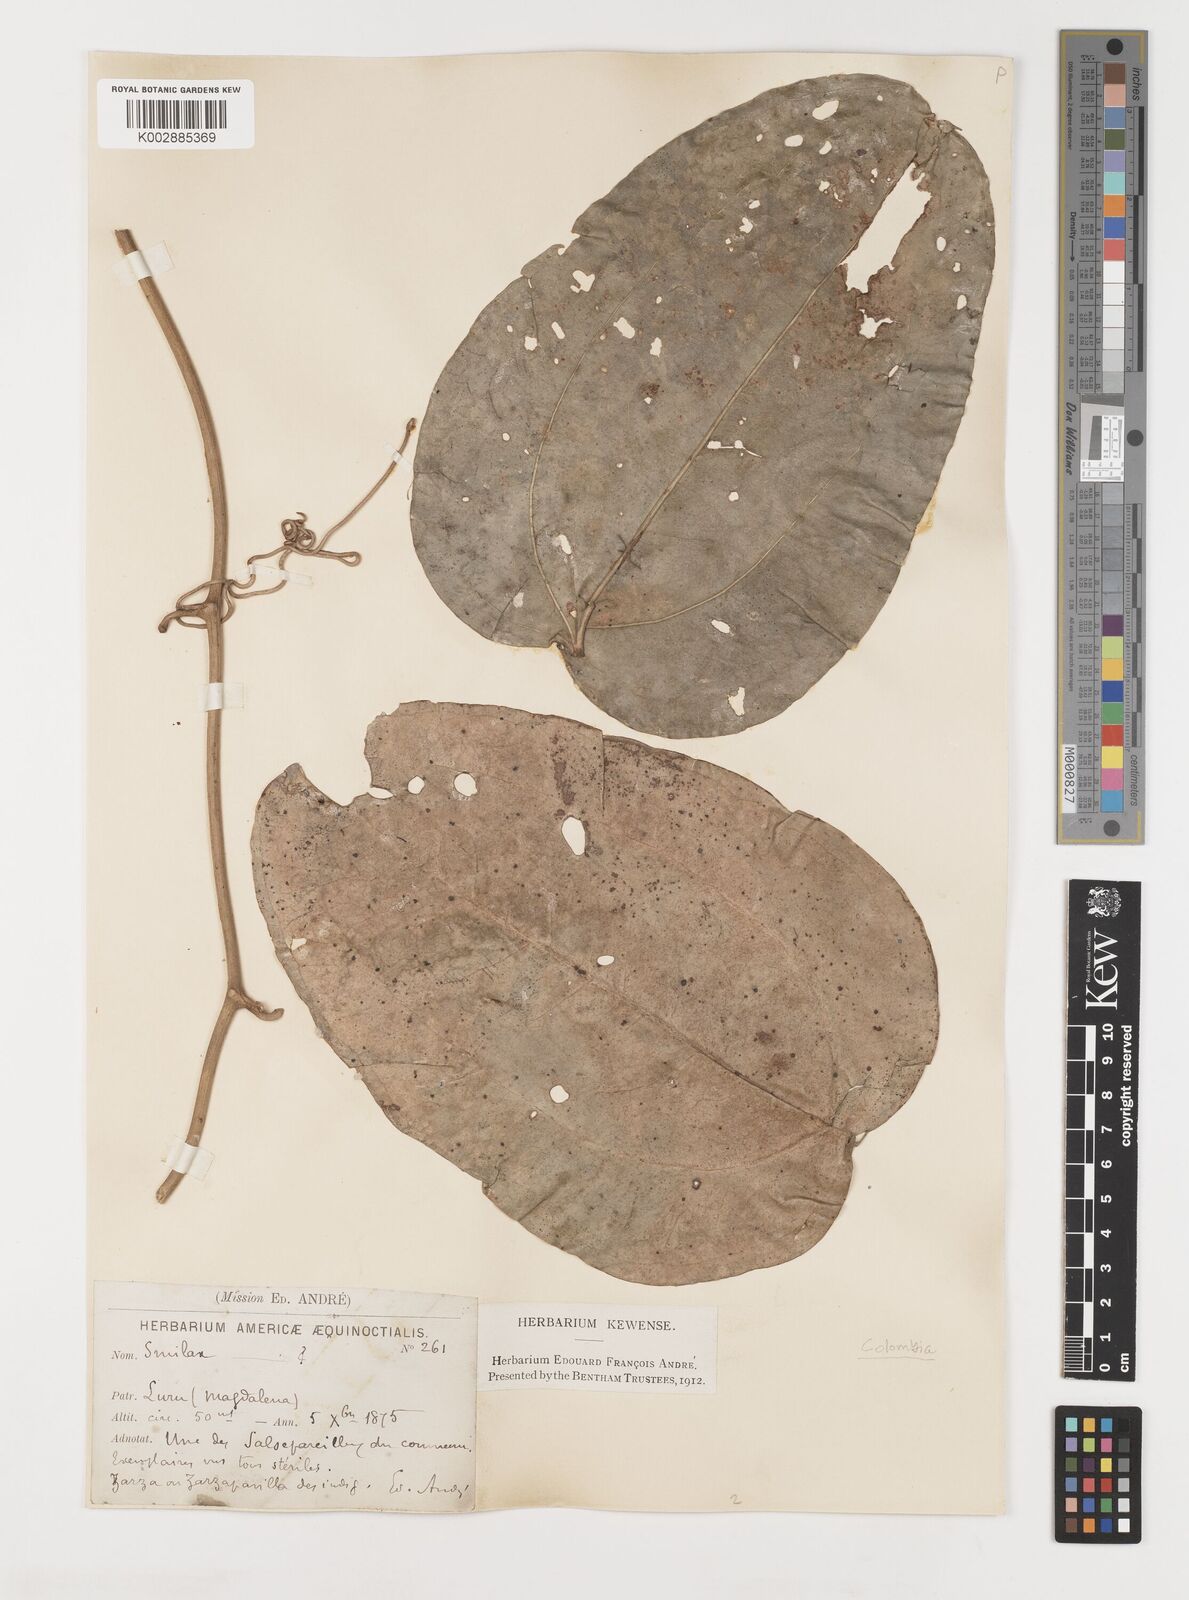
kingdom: Plantae
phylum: Tracheophyta
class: Liliopsida
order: Liliales
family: Smilacaceae
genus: Smilax
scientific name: Smilax
